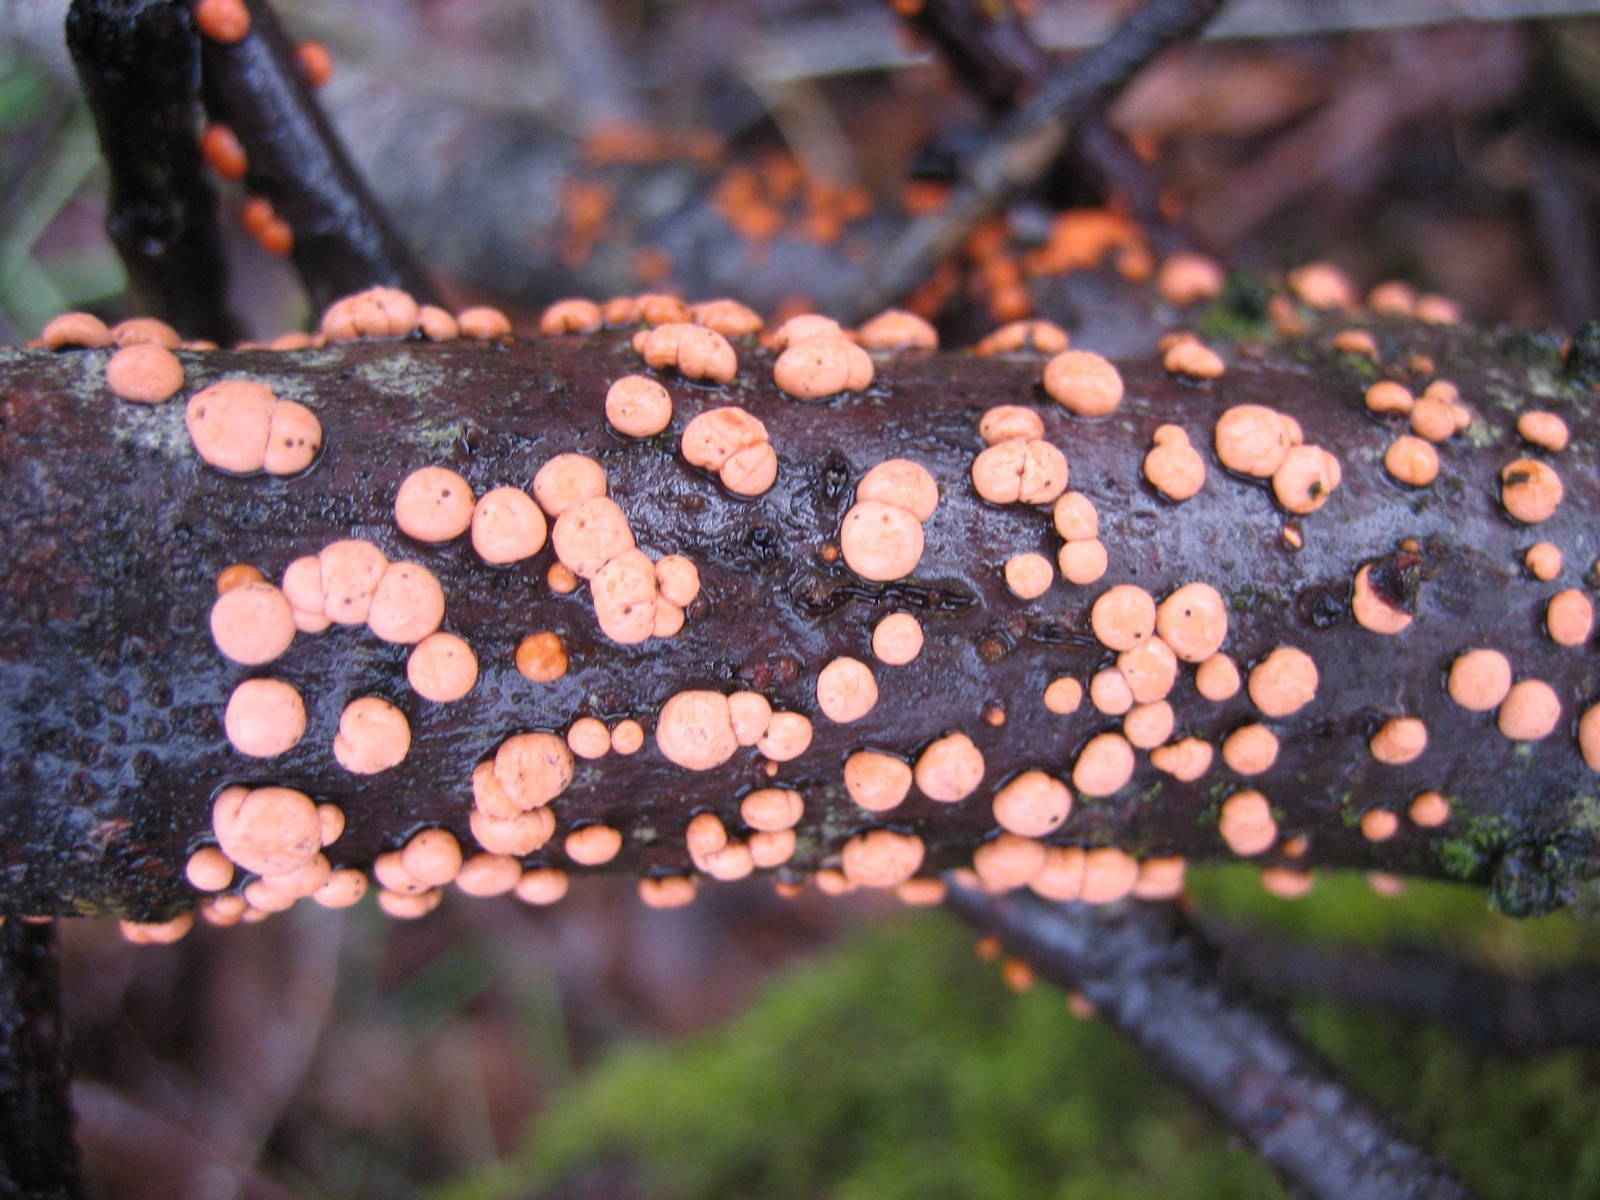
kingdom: Fungi
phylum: Ascomycota
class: Sordariomycetes
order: Hypocreales
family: Nectriaceae
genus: Nectria
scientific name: Nectria cinnabarina
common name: almindelig cinnobersvamp
